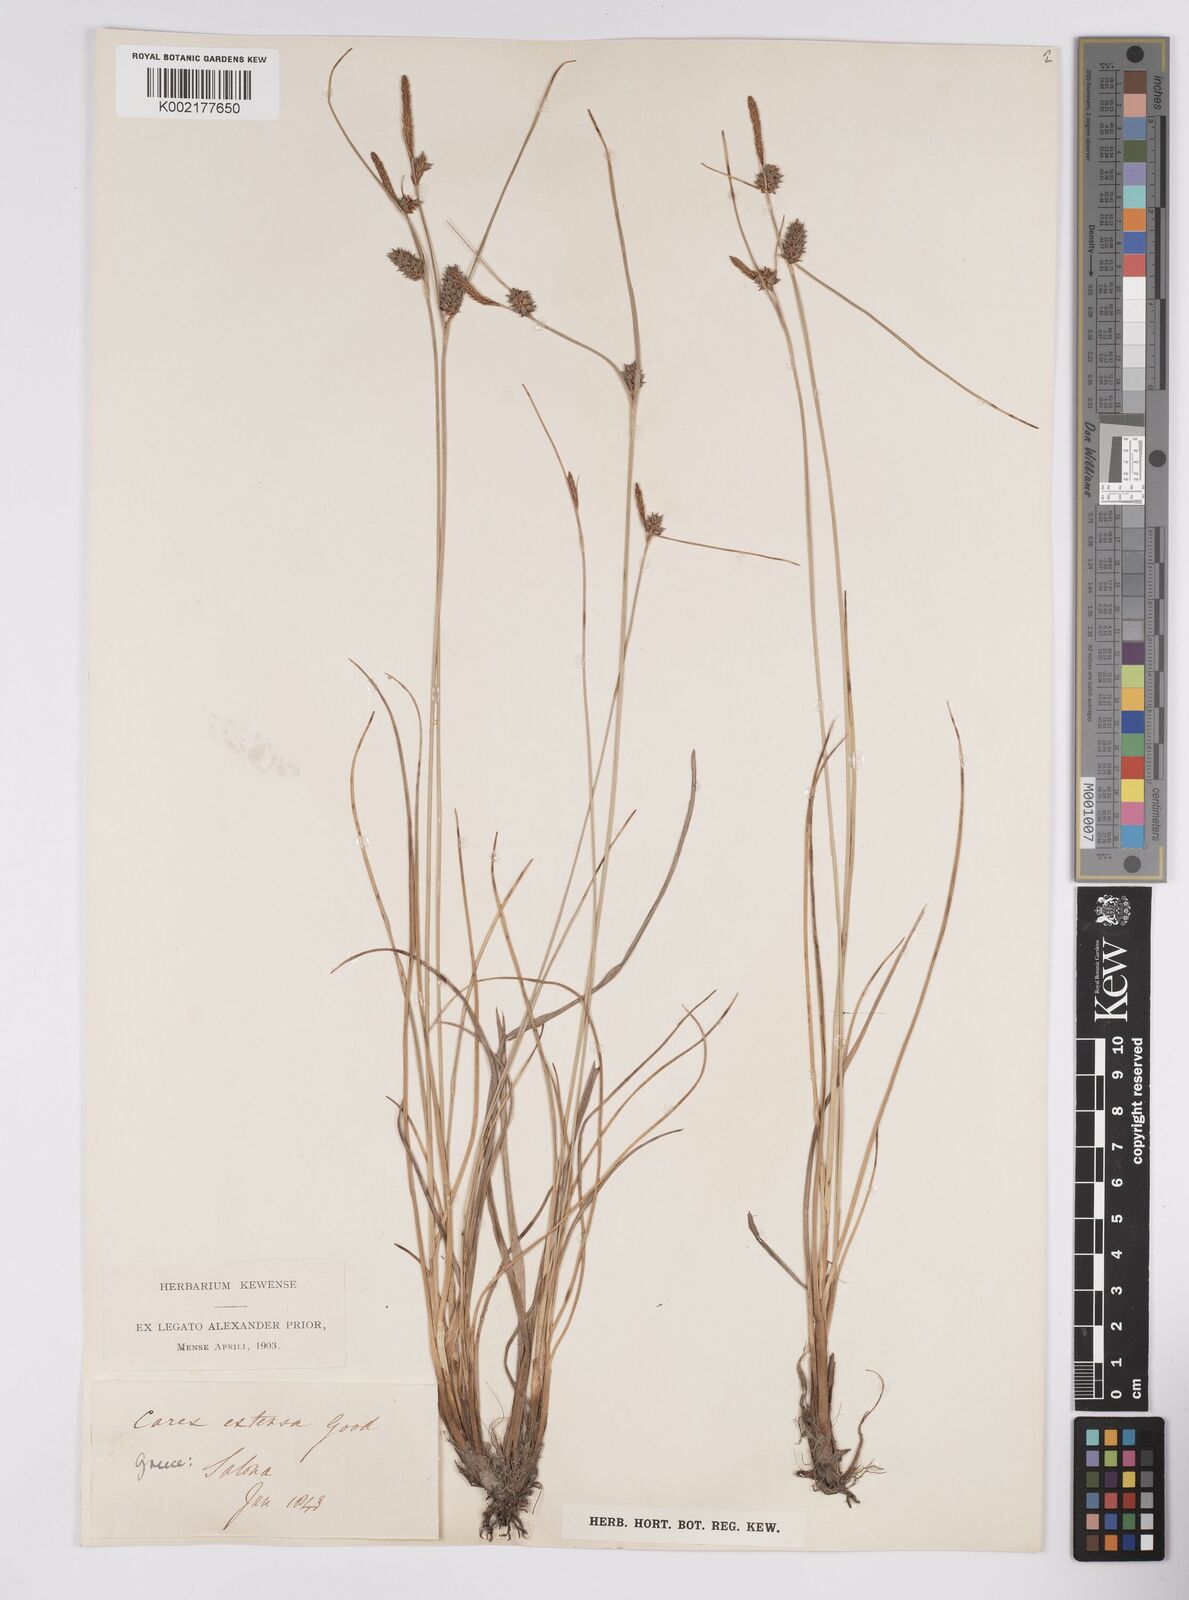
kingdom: Plantae
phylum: Tracheophyta
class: Liliopsida
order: Poales
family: Cyperaceae
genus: Carex
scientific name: Carex extensa
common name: Long-bracted sedge
